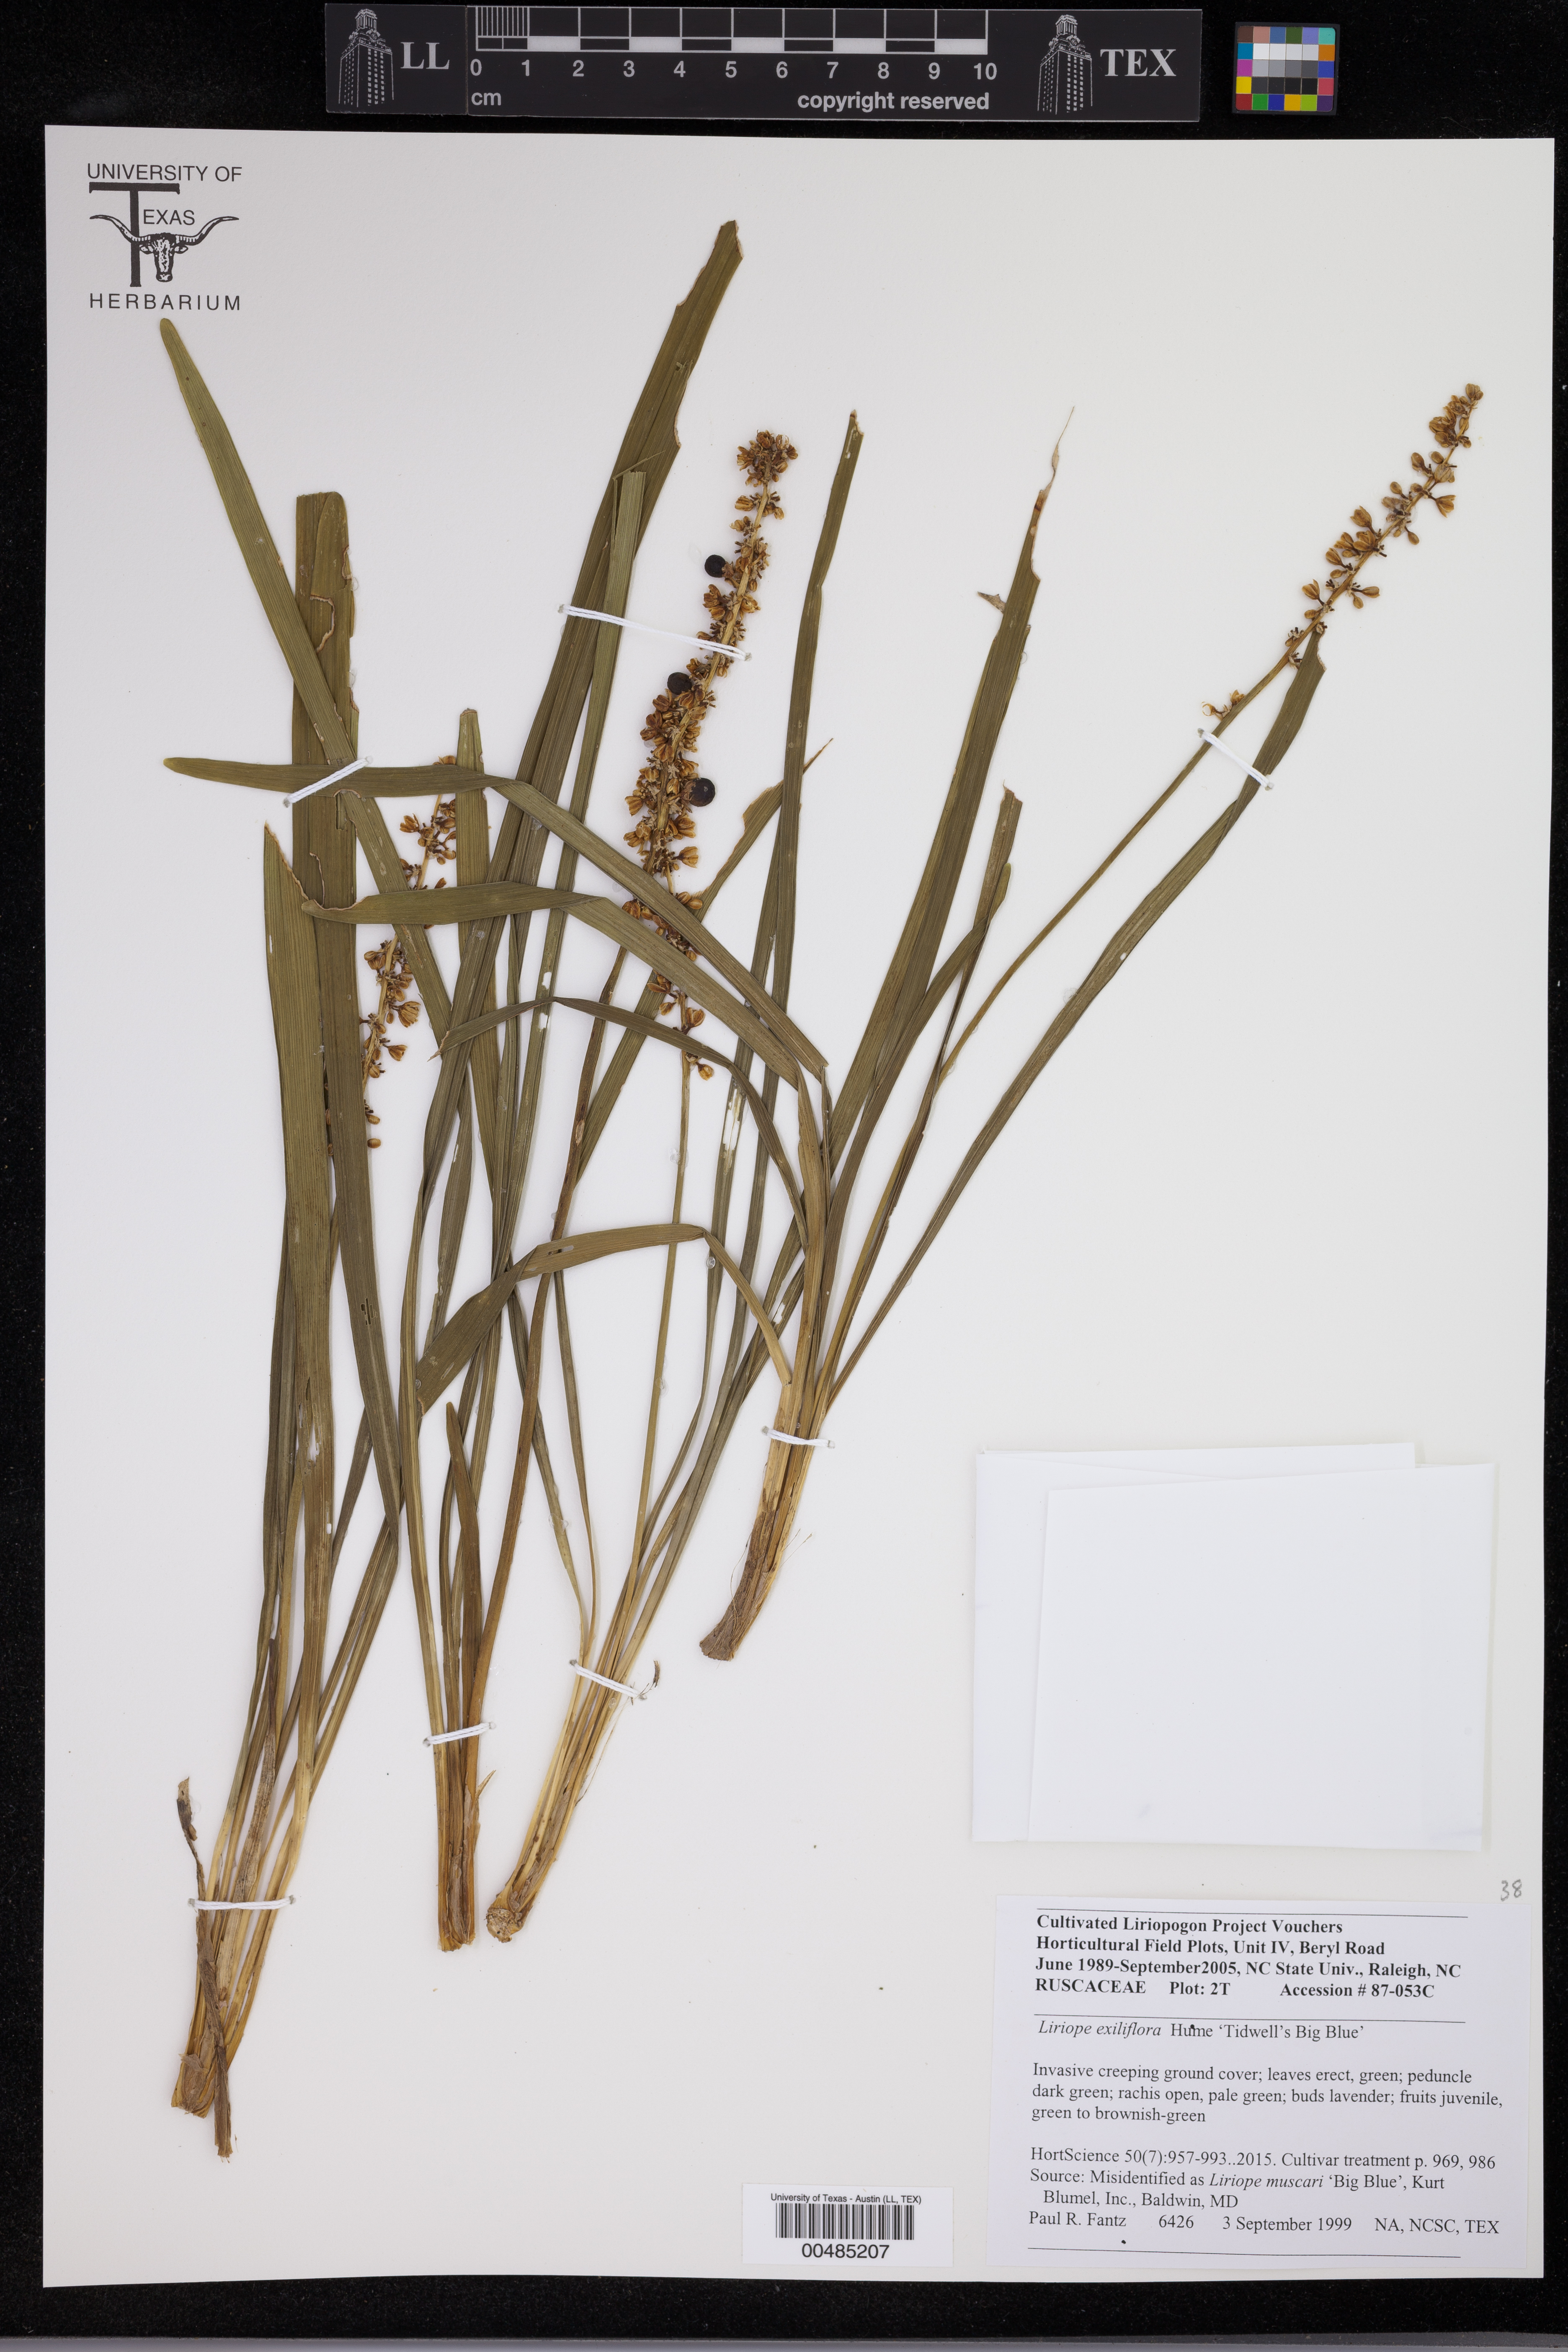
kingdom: Plantae
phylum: Tracheophyta
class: Liliopsida
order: Asparagales
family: Asparagaceae
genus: Liriope
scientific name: Liriope muscari
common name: Big blue lilyturf
